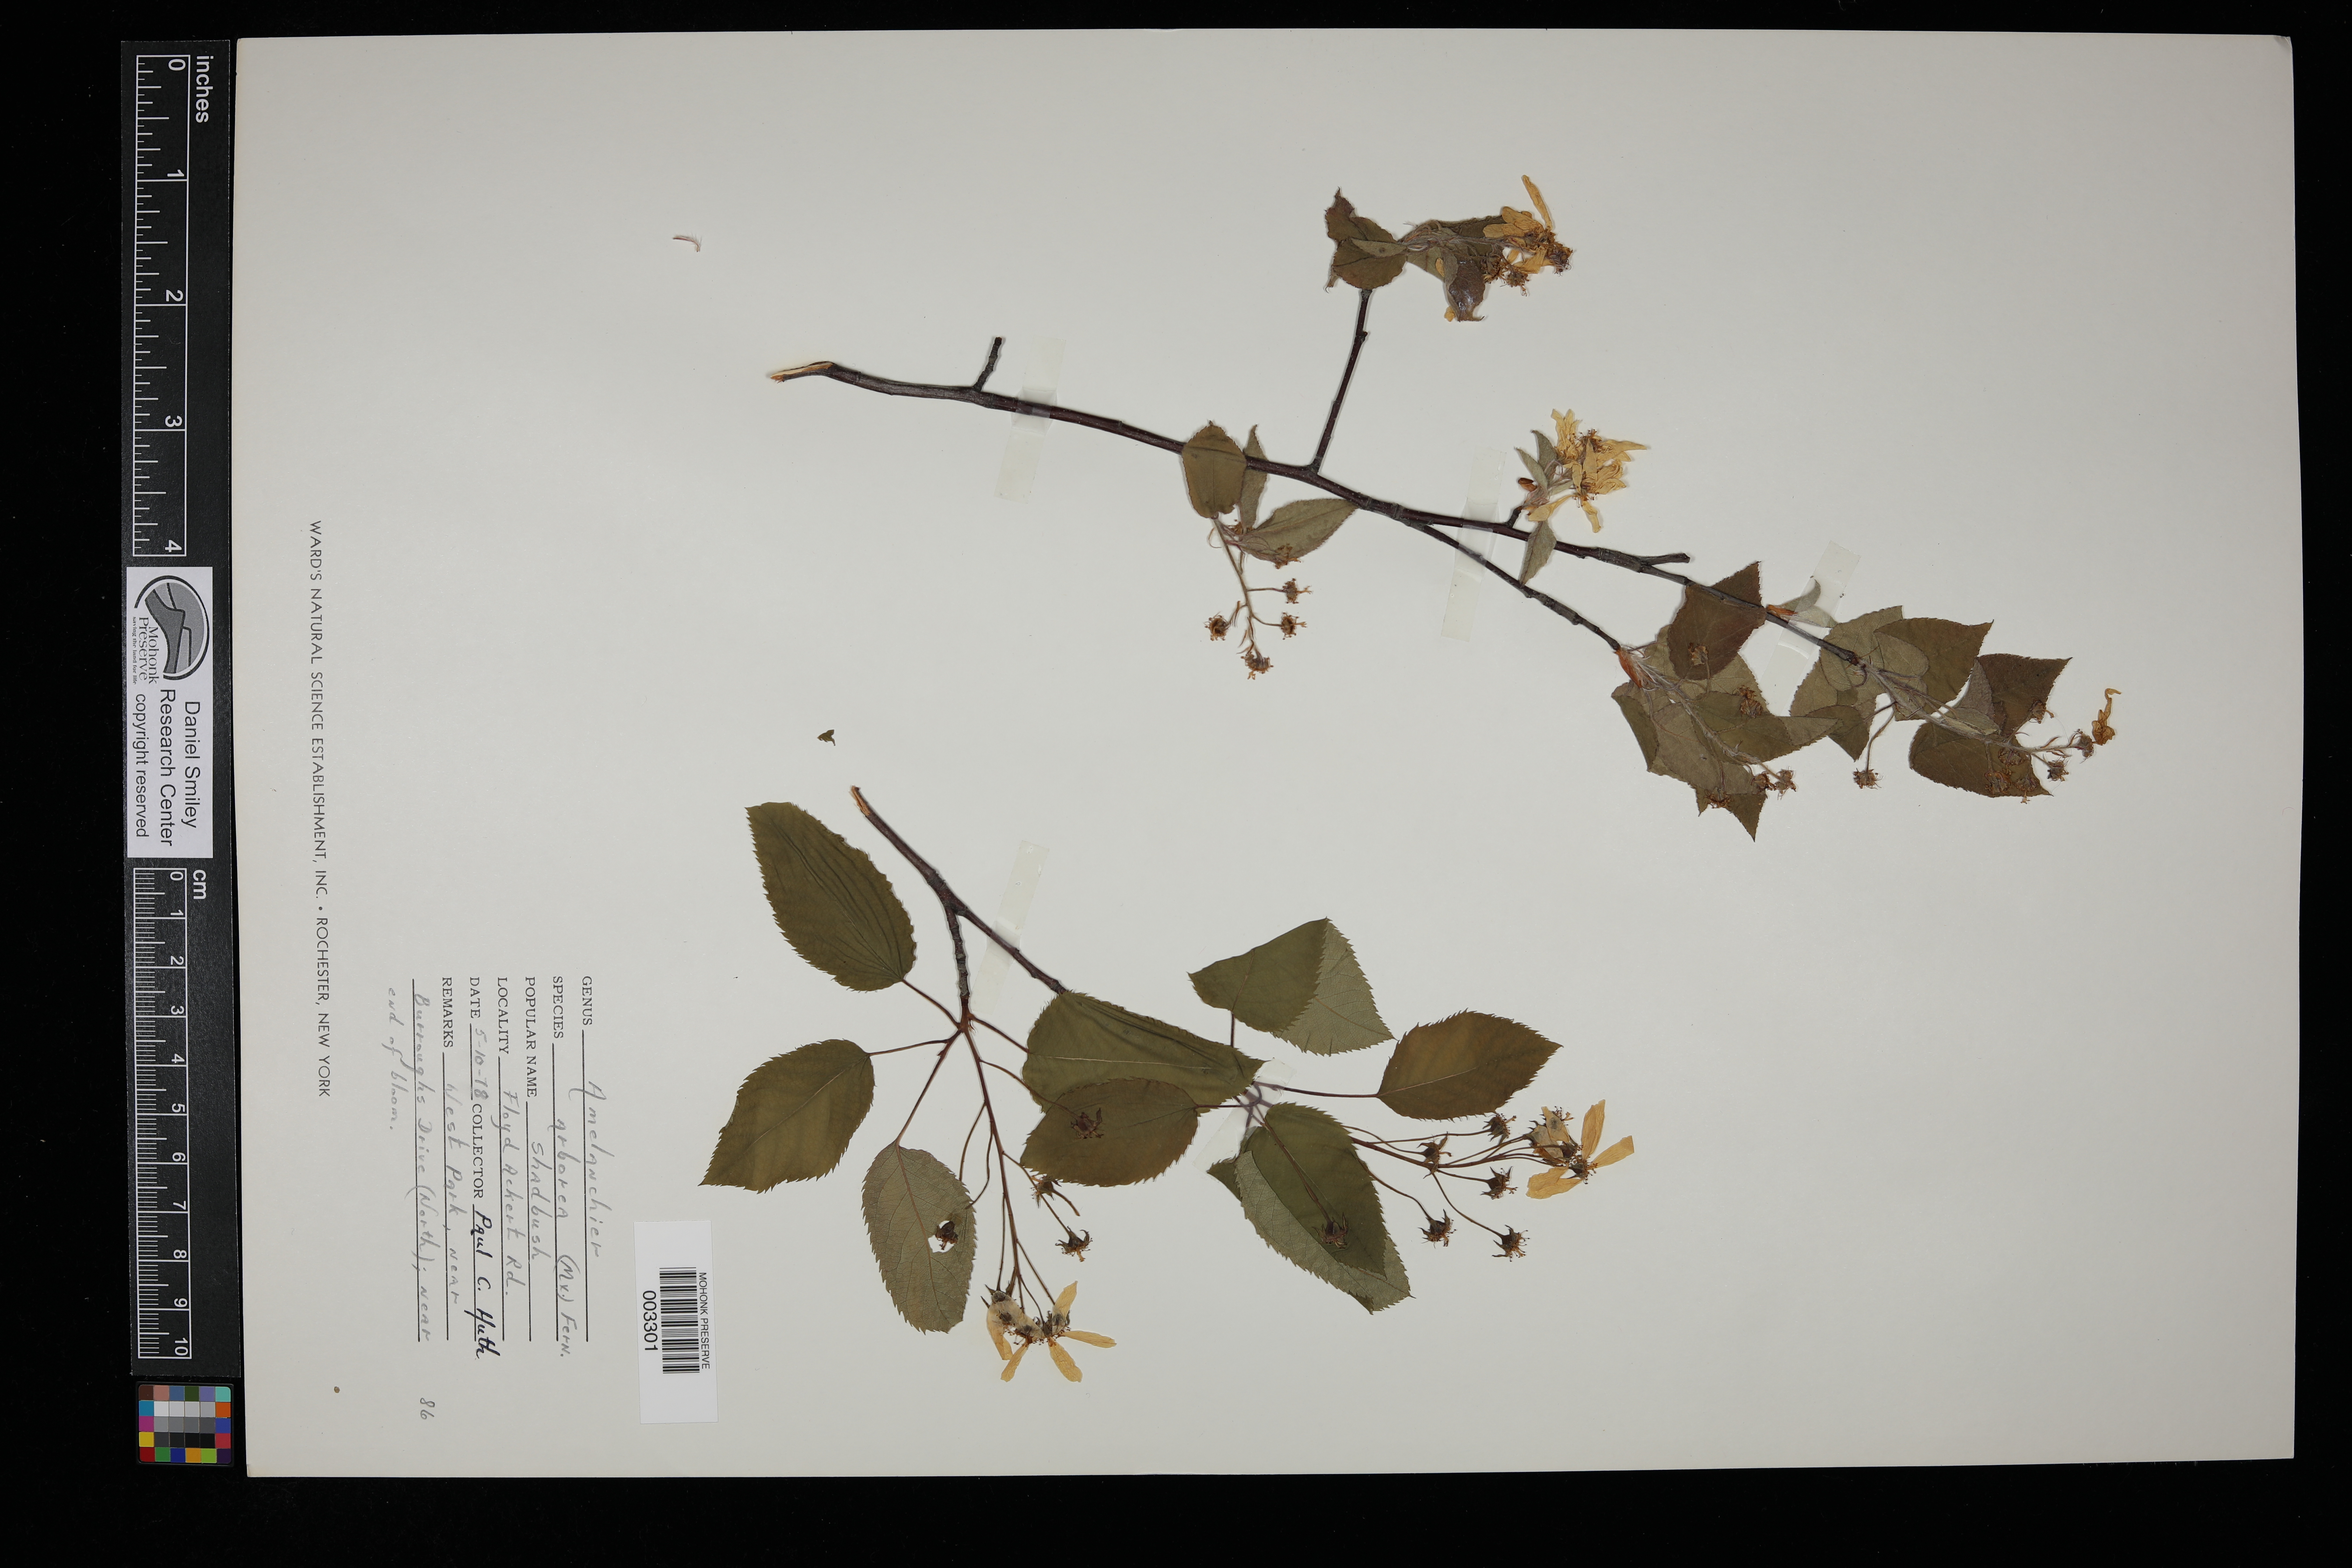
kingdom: Plantae
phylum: Tracheophyta
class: Magnoliopsida
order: Rosales
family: Rosaceae
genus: Amelanchier
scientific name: Amelanchier arborea
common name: Downy serviceberry
